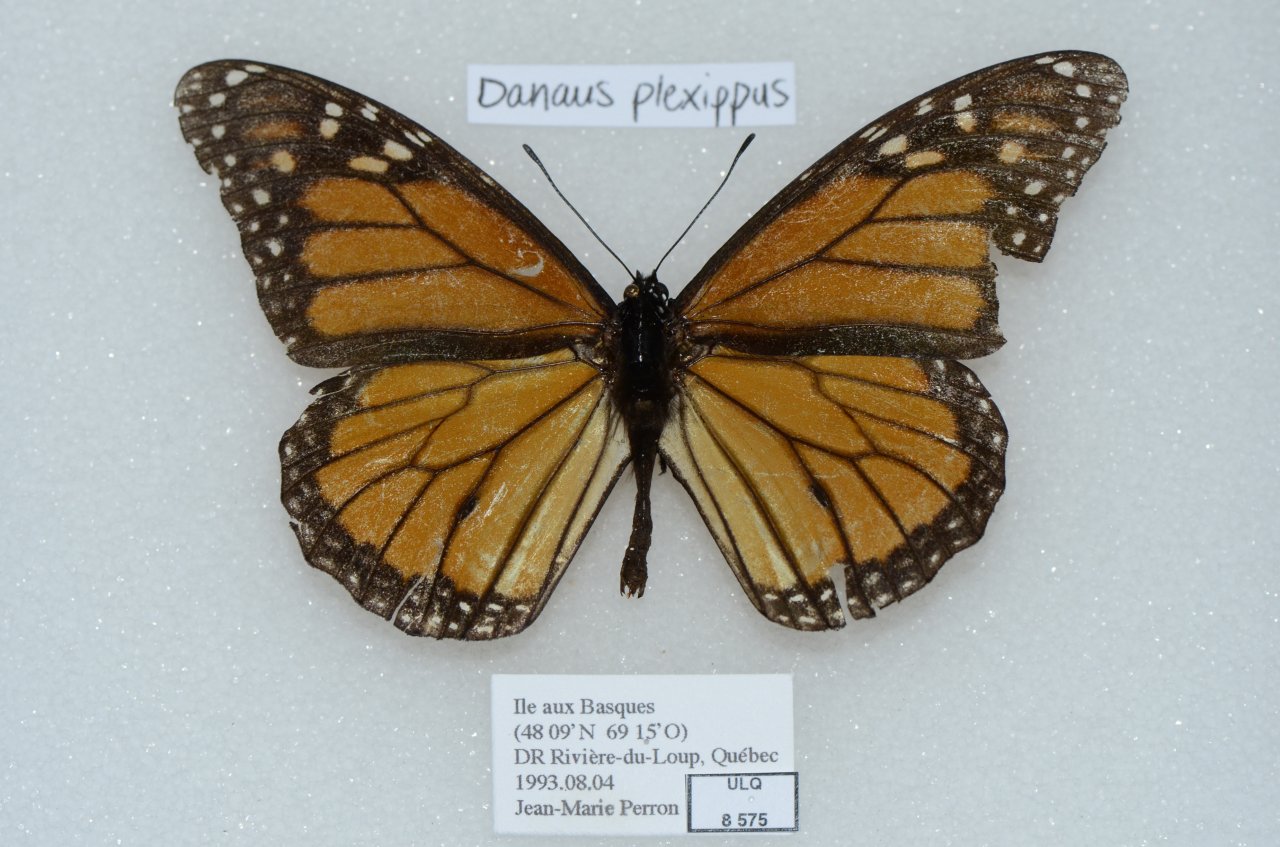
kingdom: Animalia
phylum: Arthropoda
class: Insecta
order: Lepidoptera
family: Nymphalidae
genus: Danaus
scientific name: Danaus plexippus
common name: Monarch
